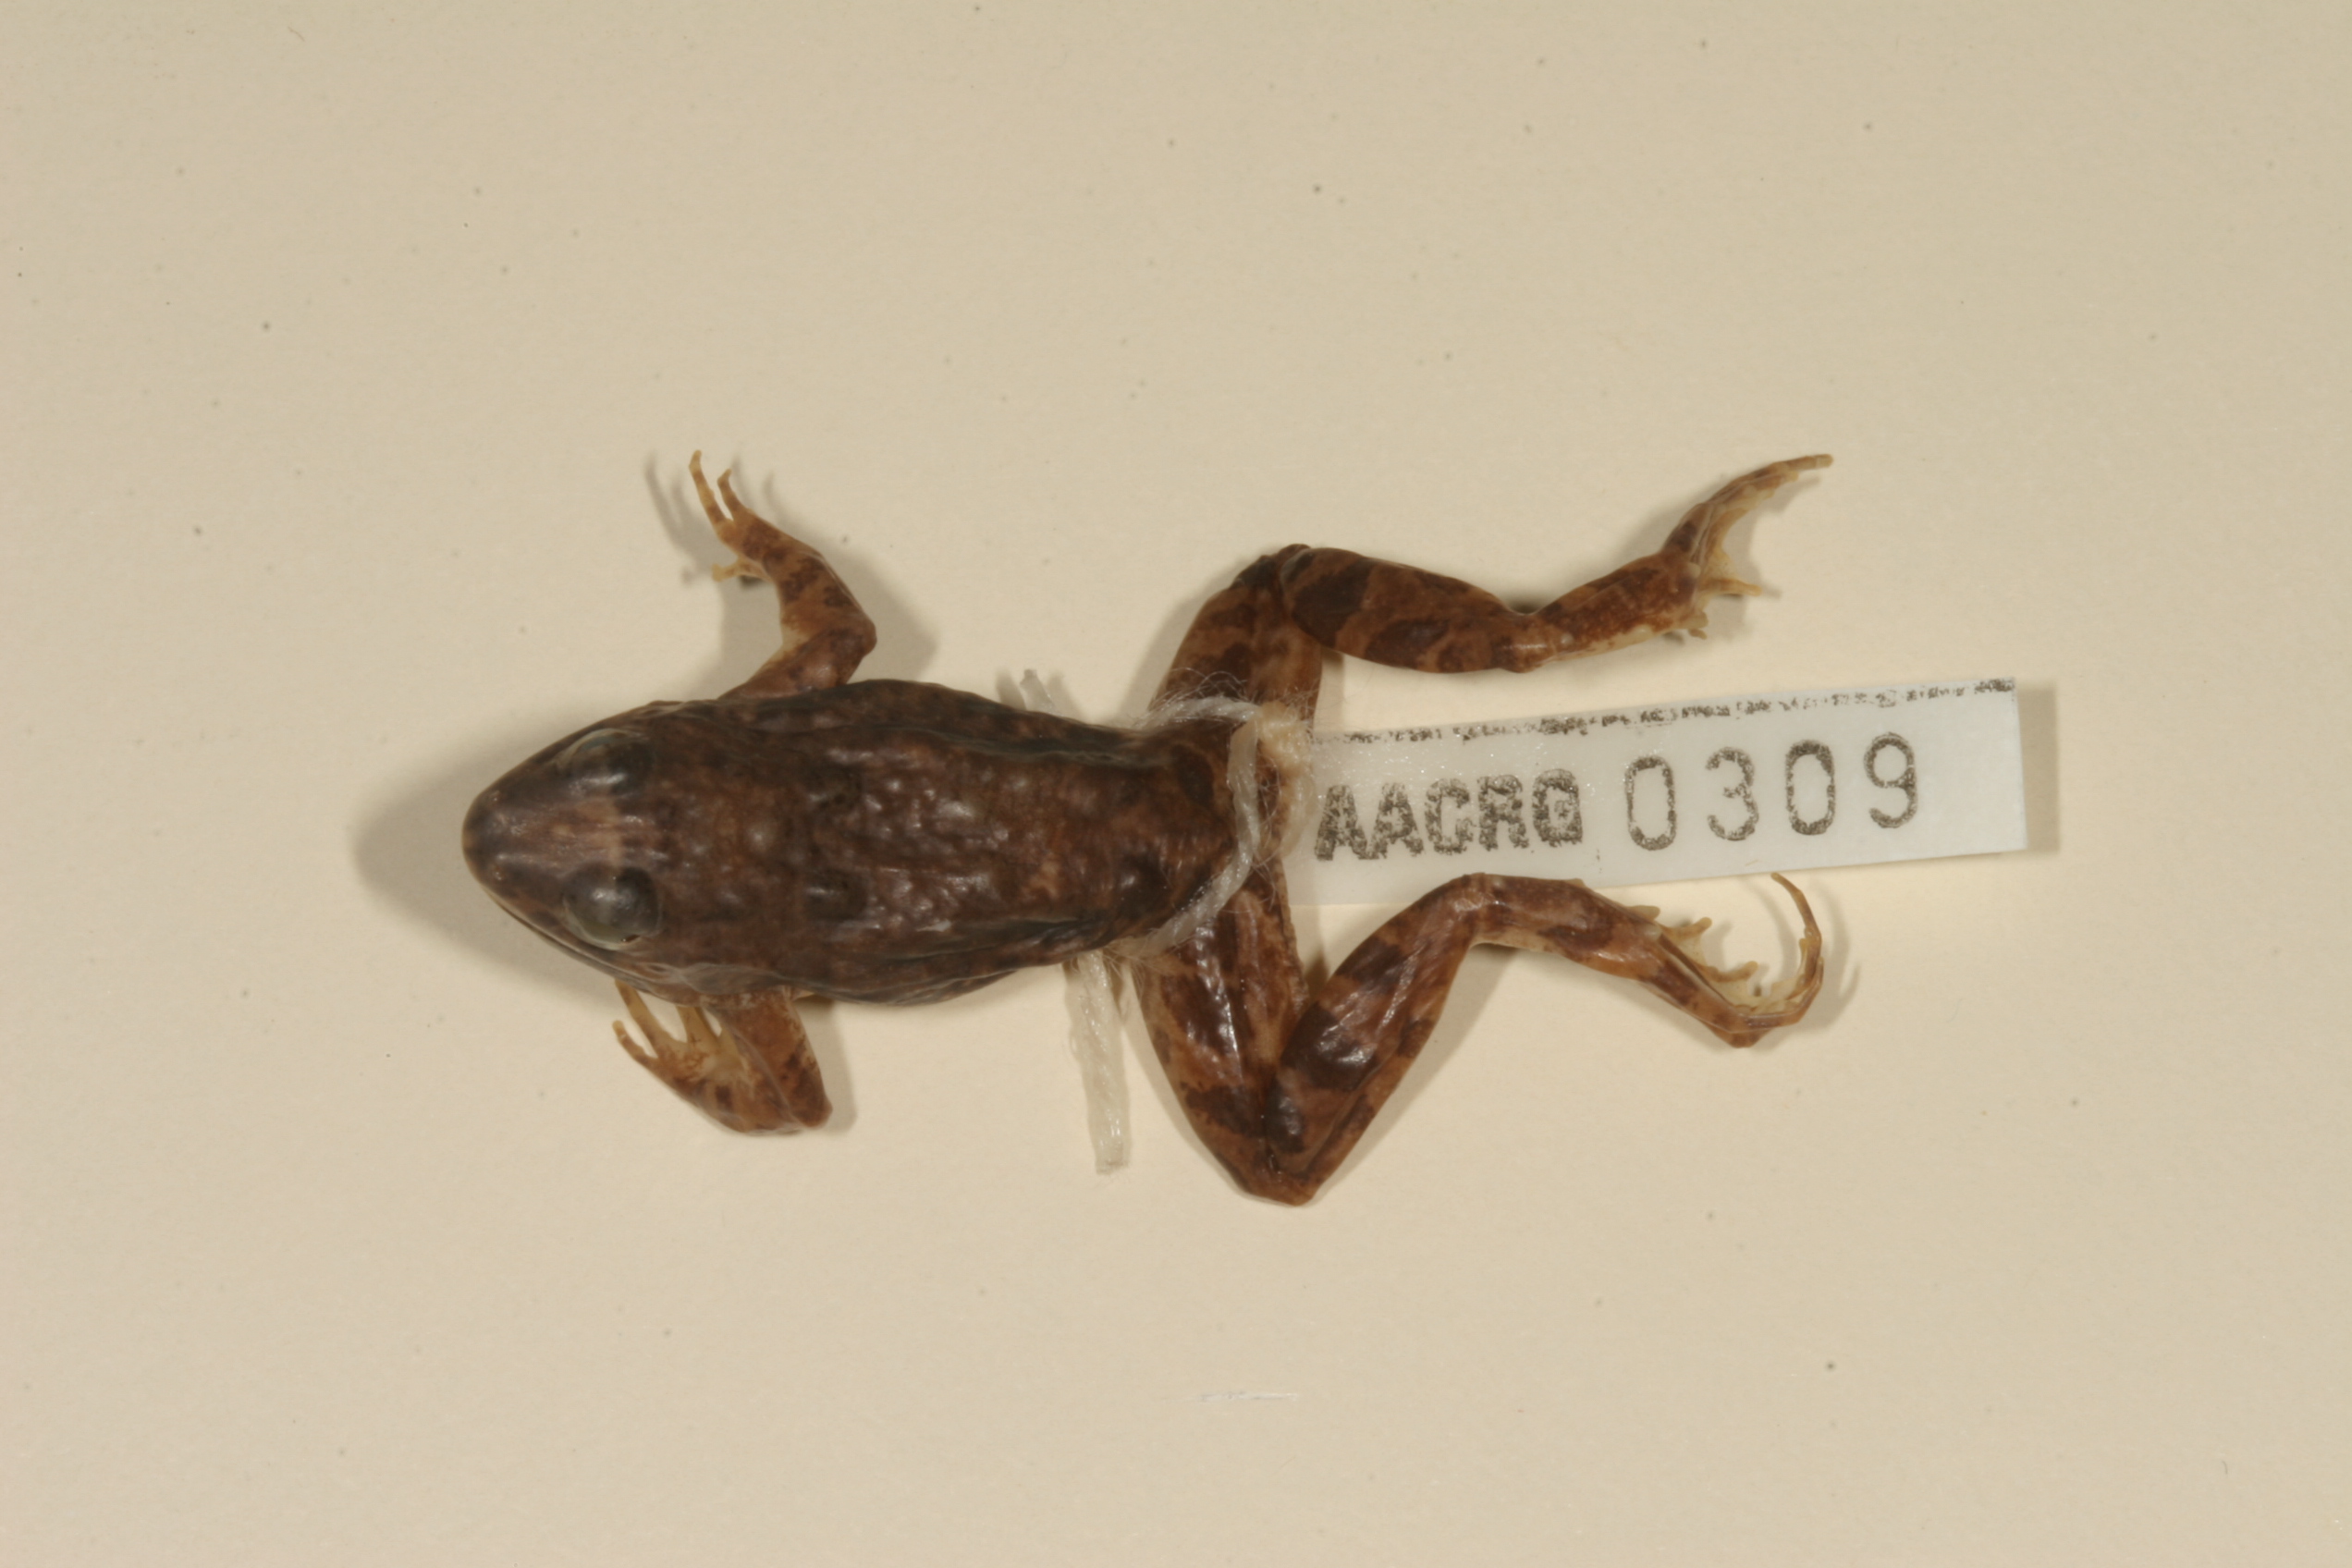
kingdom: Animalia
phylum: Chordata
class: Amphibia
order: Anura
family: Phrynobatrachidae
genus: Phrynobatrachus
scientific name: Phrynobatrachus natalensis
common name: Snoring puddle frog
